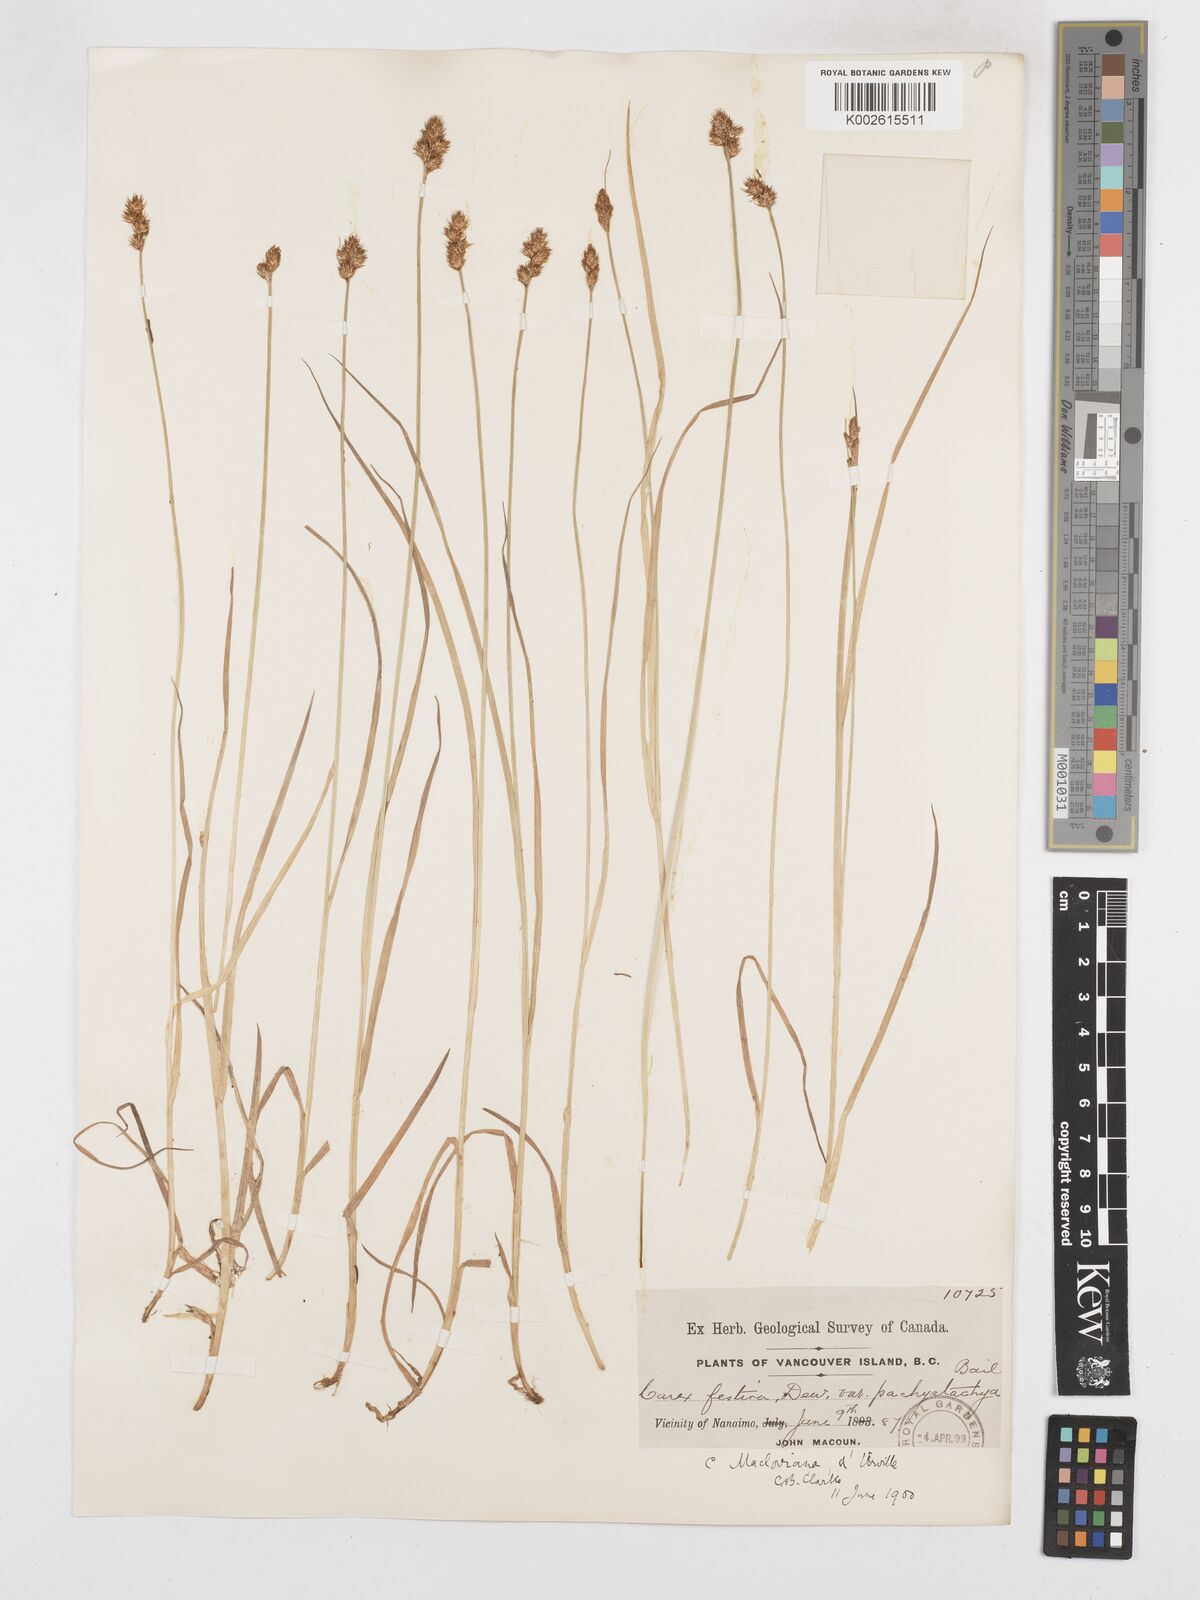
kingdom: Plantae
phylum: Tracheophyta
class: Liliopsida
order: Poales
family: Cyperaceae
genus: Carex
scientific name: Carex macloviana
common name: Falkland island sedge
